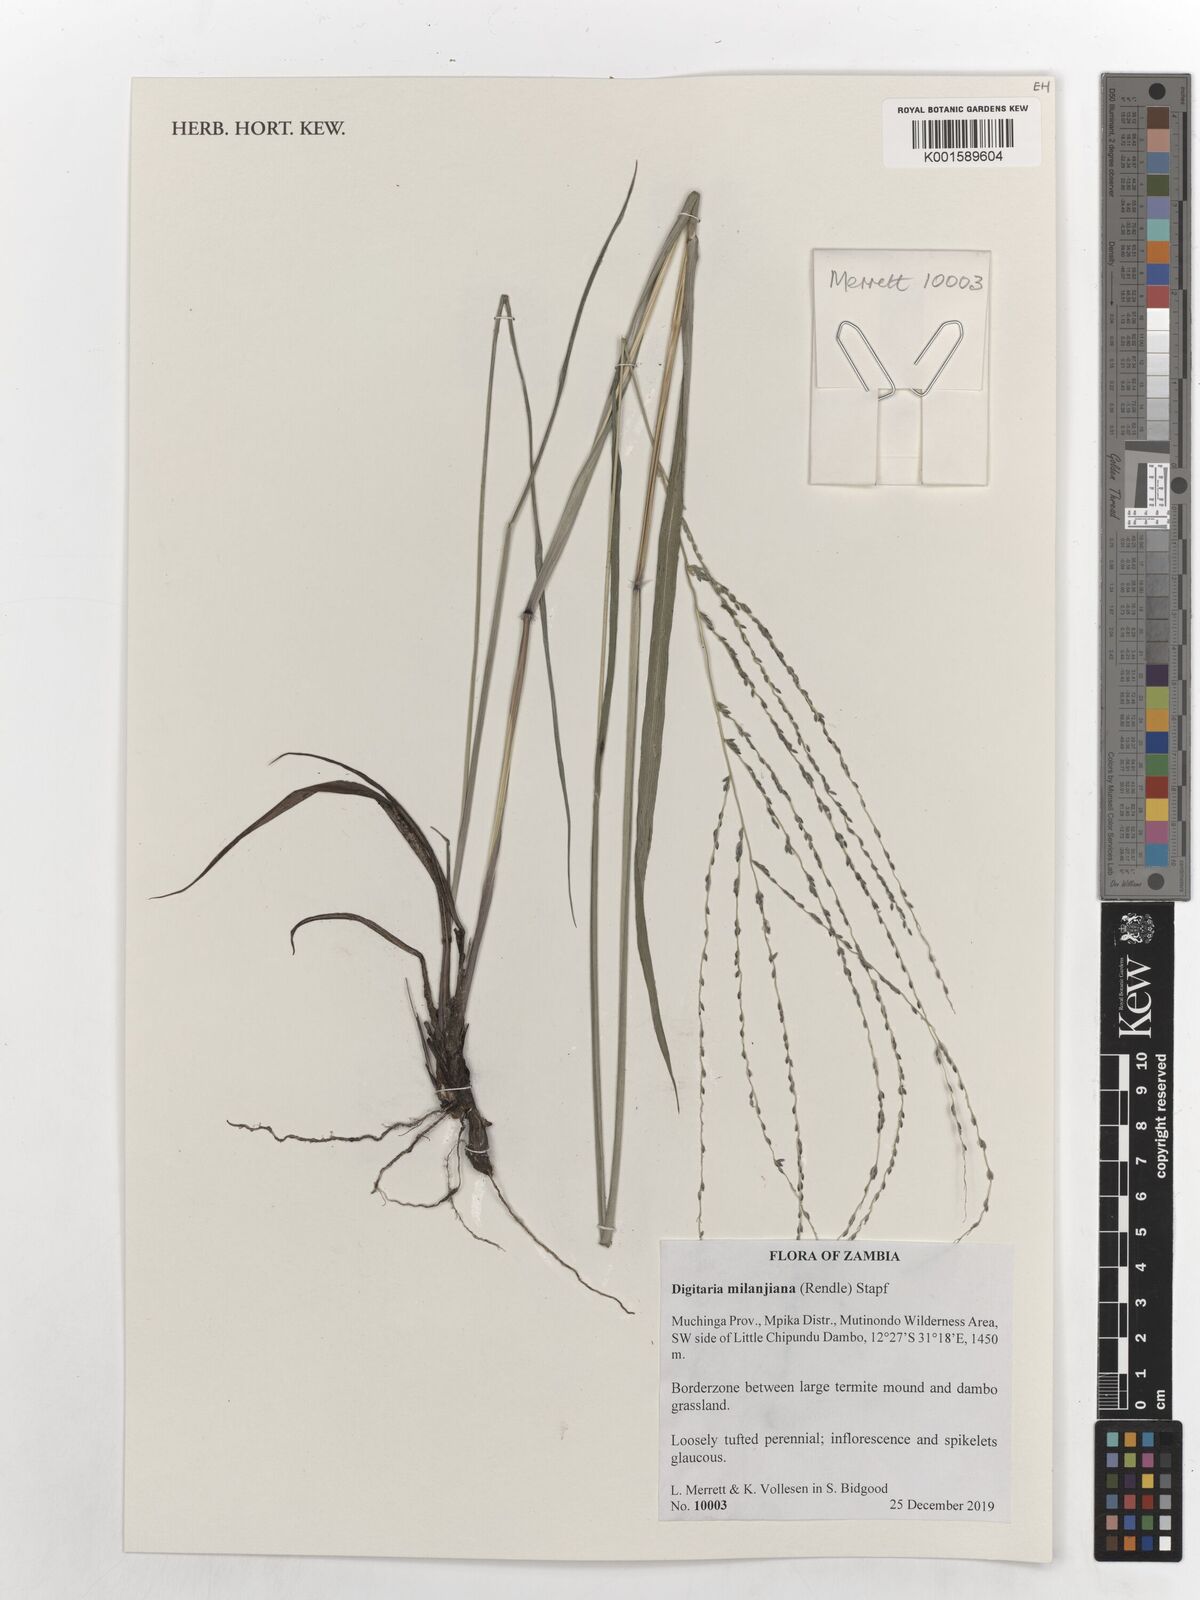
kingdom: Plantae
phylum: Tracheophyta
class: Liliopsida
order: Poales
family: Poaceae
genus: Digitaria
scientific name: Digitaria milanjiana
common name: Madagascar crabgrass
